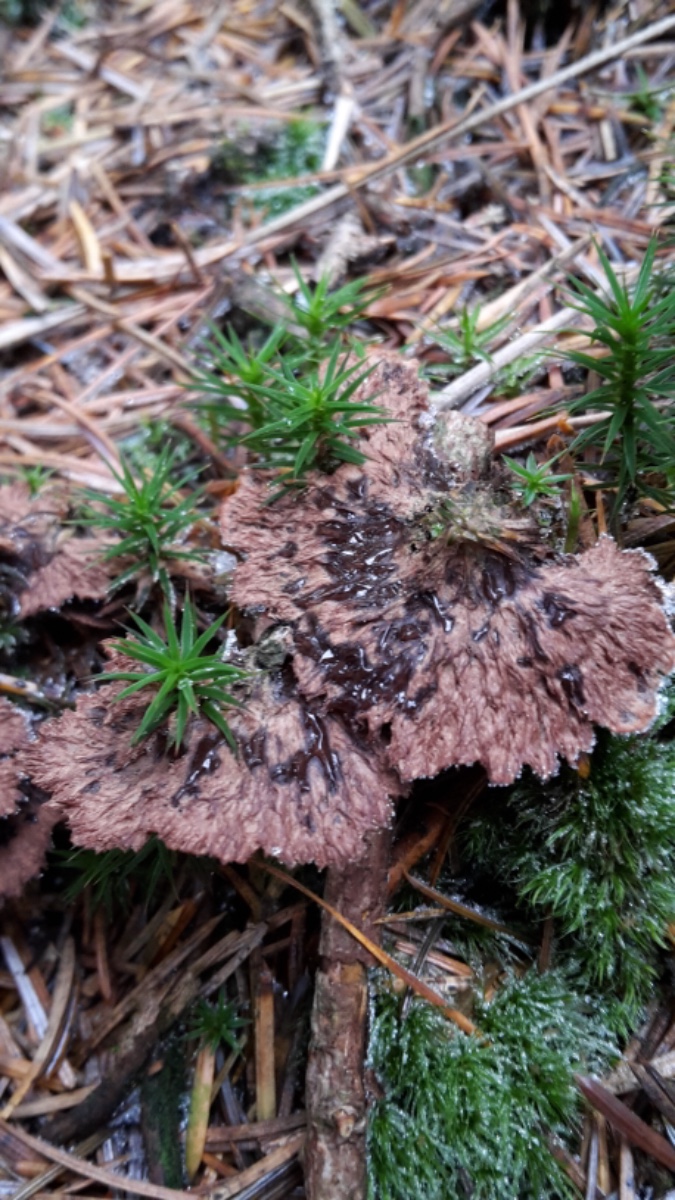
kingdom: Fungi
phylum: Basidiomycota
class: Agaricomycetes
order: Thelephorales
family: Thelephoraceae
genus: Thelephora
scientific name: Thelephora terrestris
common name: fliget frynsesvamp
